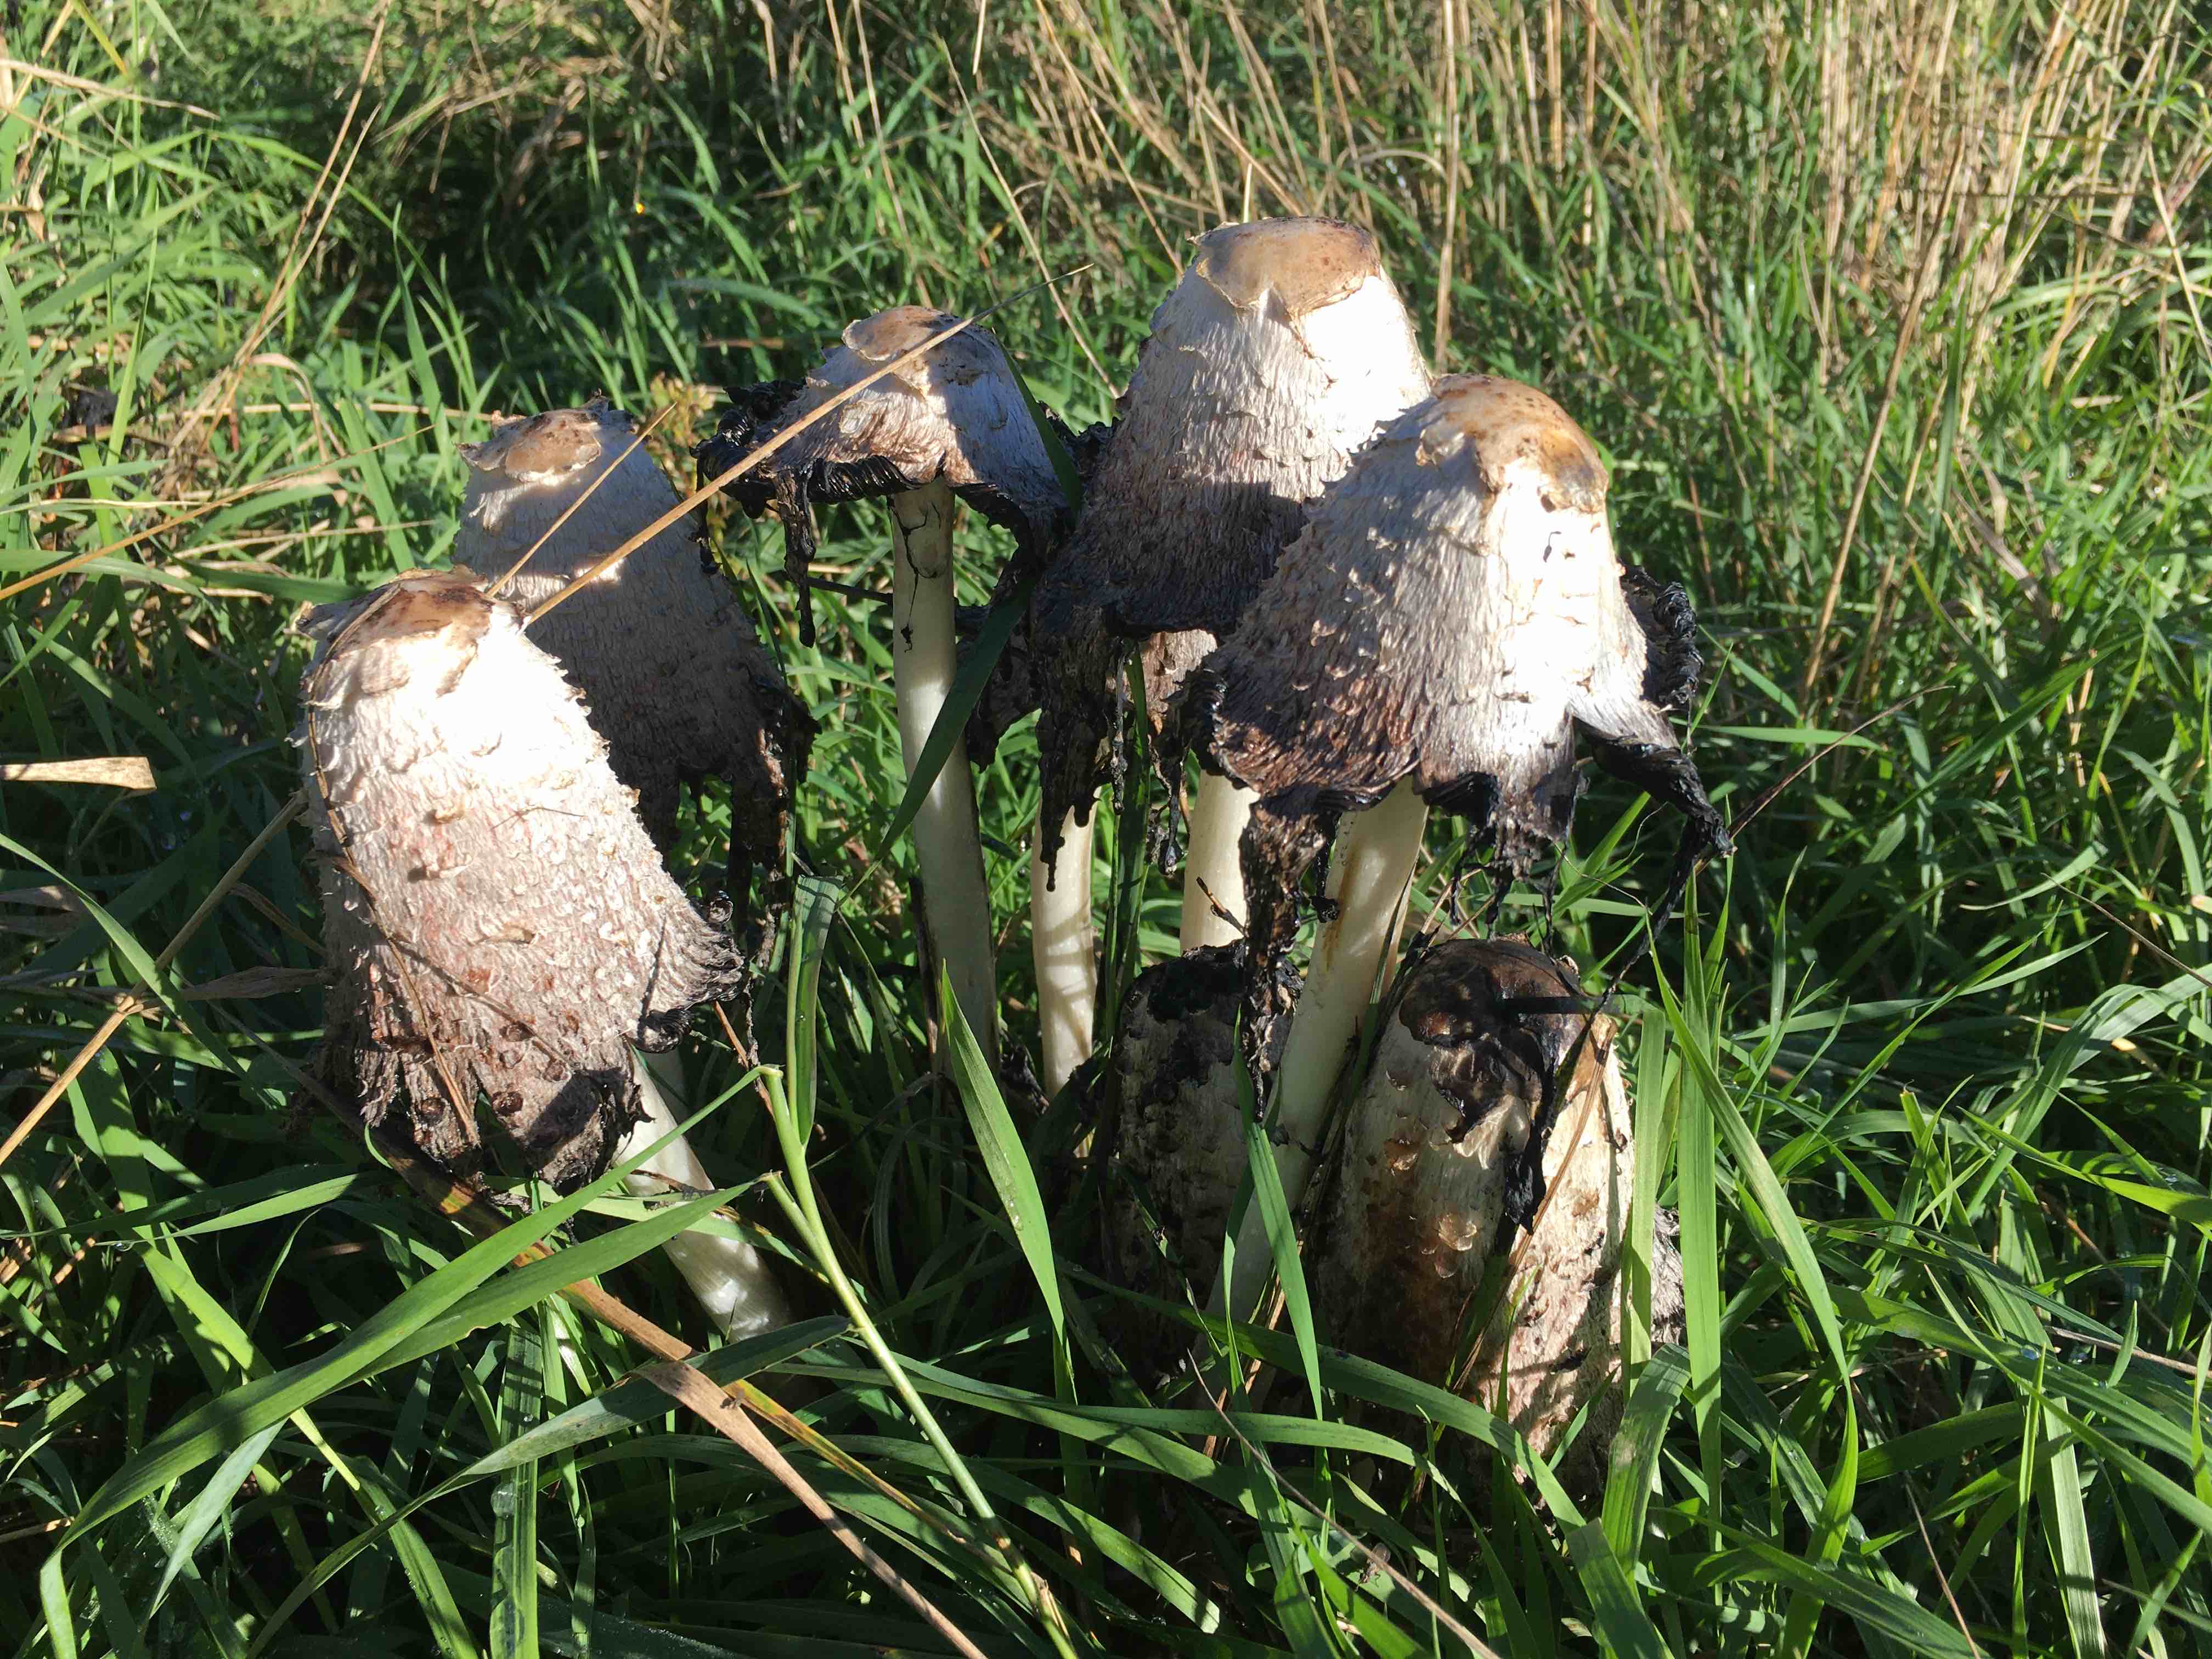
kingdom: Fungi
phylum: Basidiomycota
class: Agaricomycetes
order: Agaricales
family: Agaricaceae
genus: Coprinus
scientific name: Coprinus comatus
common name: stor parykhat
